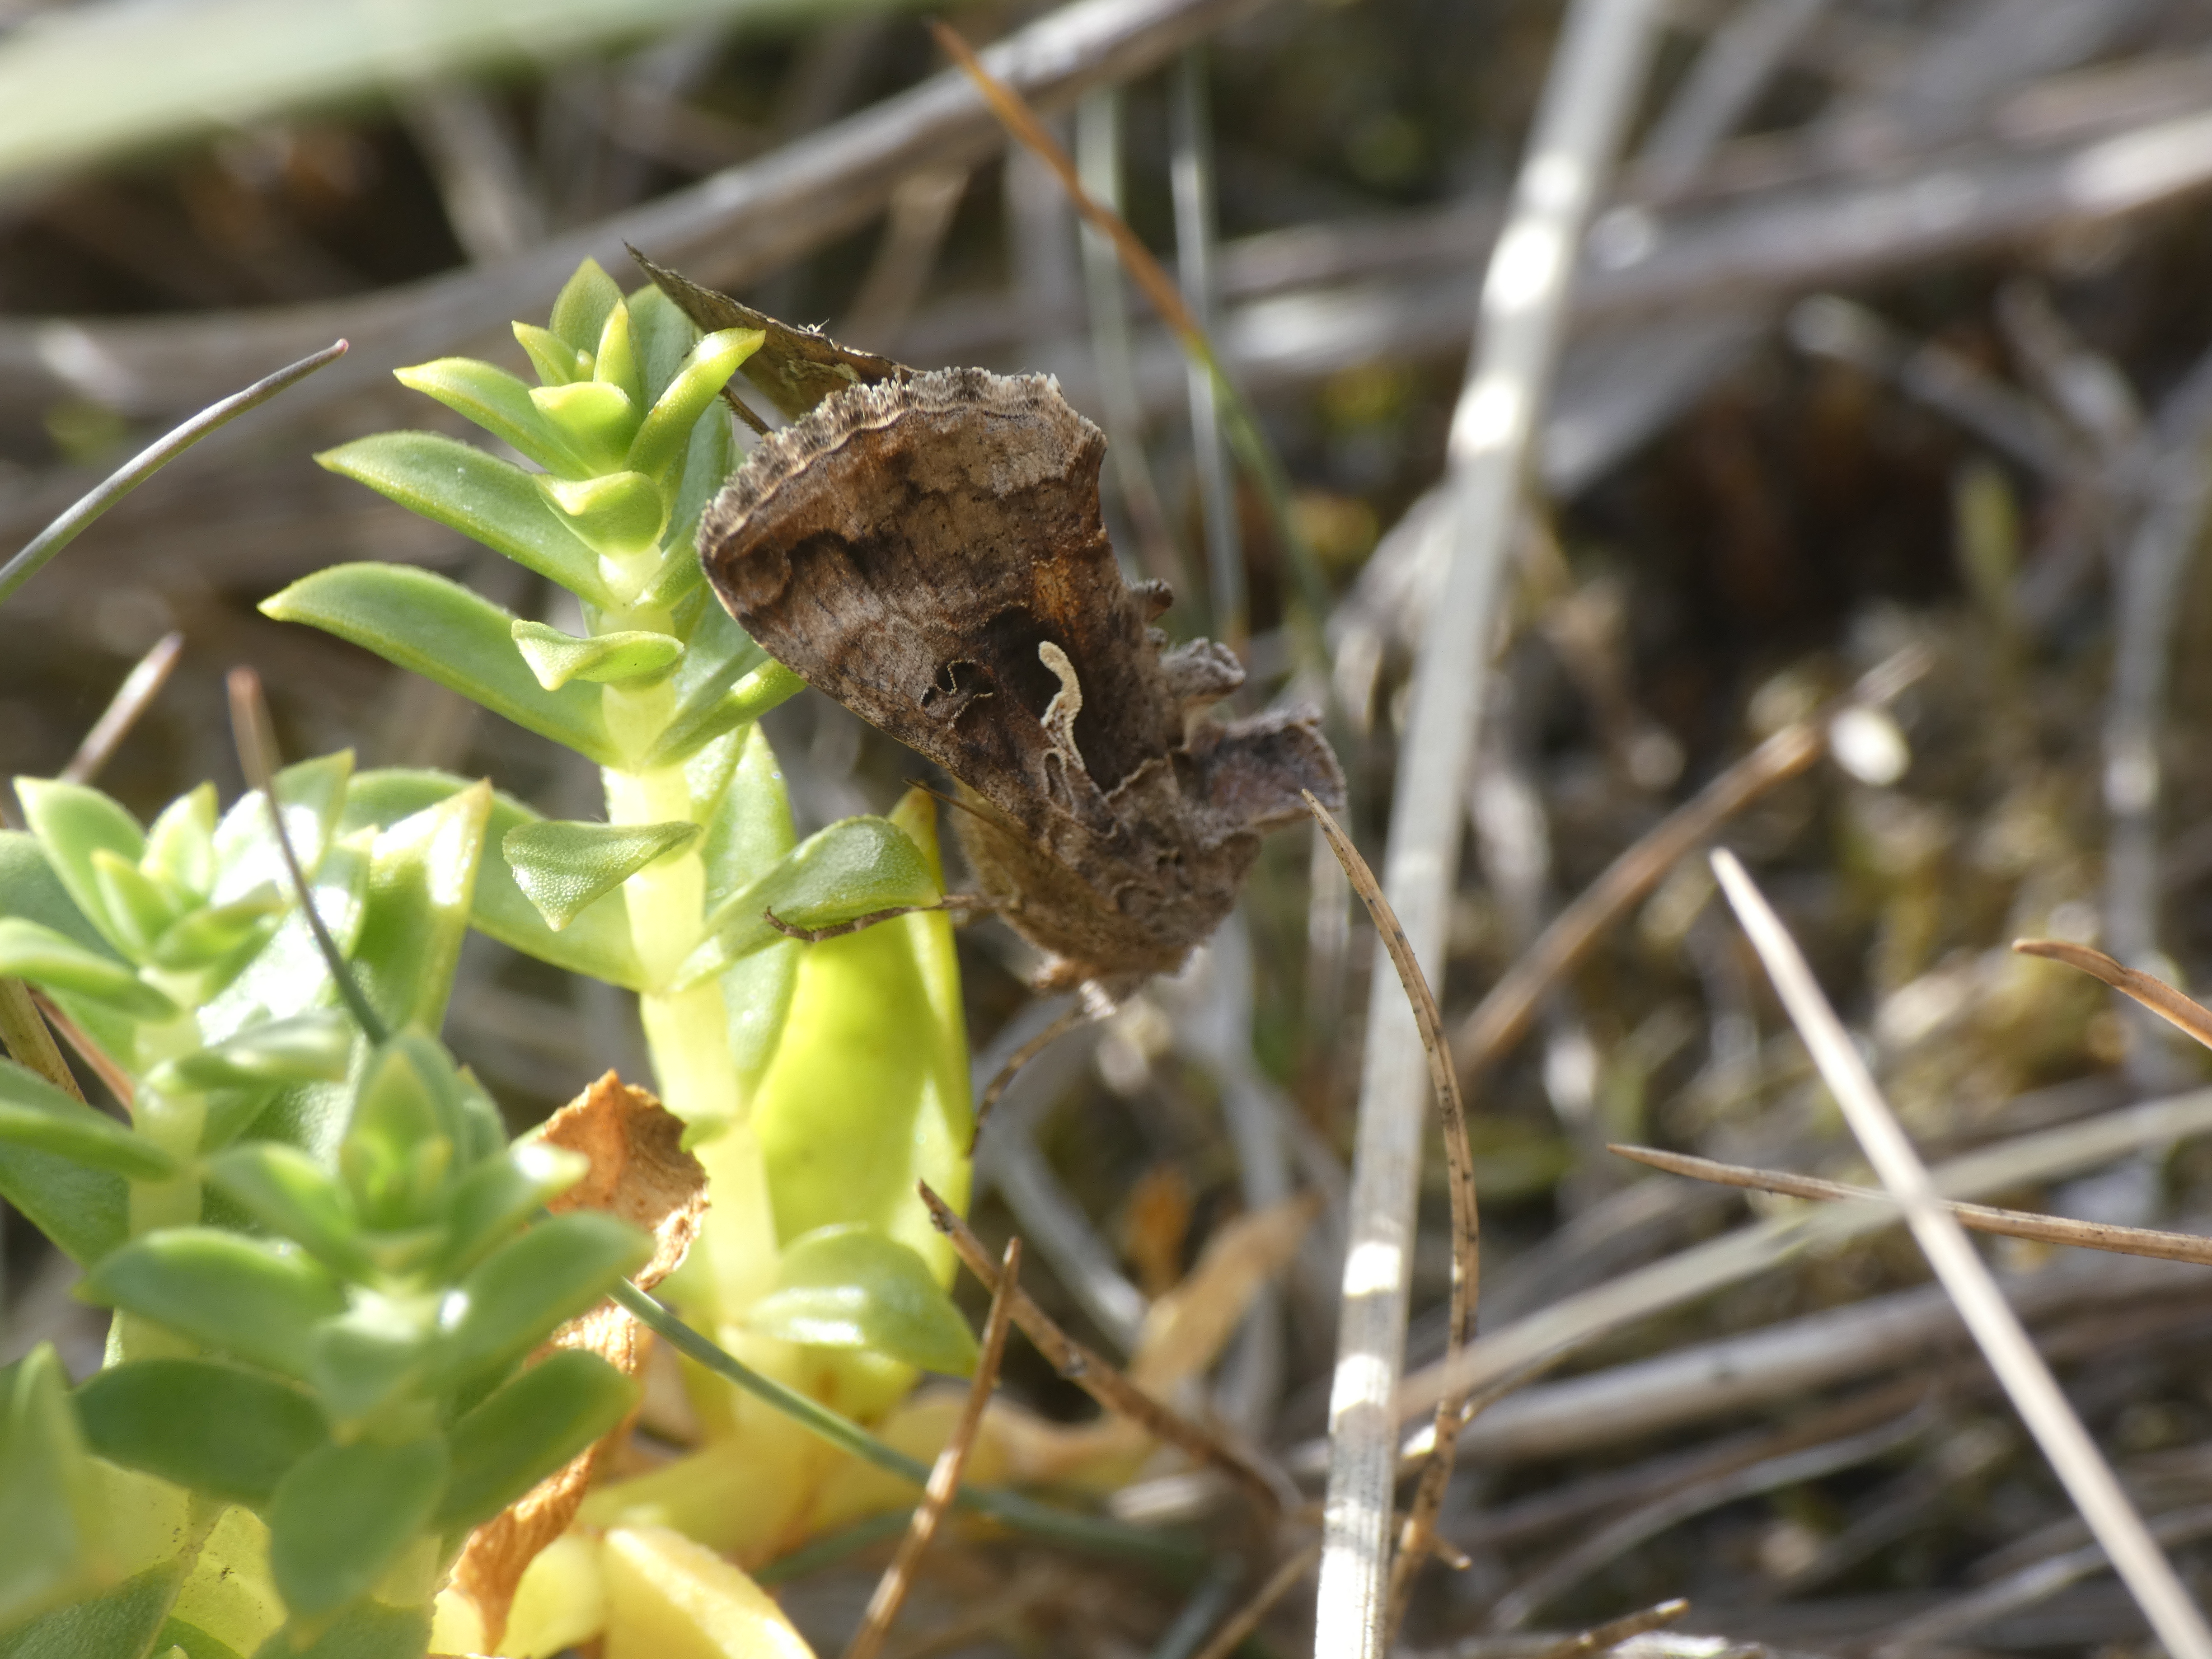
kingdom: Animalia
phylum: Arthropoda
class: Insecta
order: Lepidoptera
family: Noctuidae
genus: Autographa
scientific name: Autographa gamma
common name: Gammaugle
